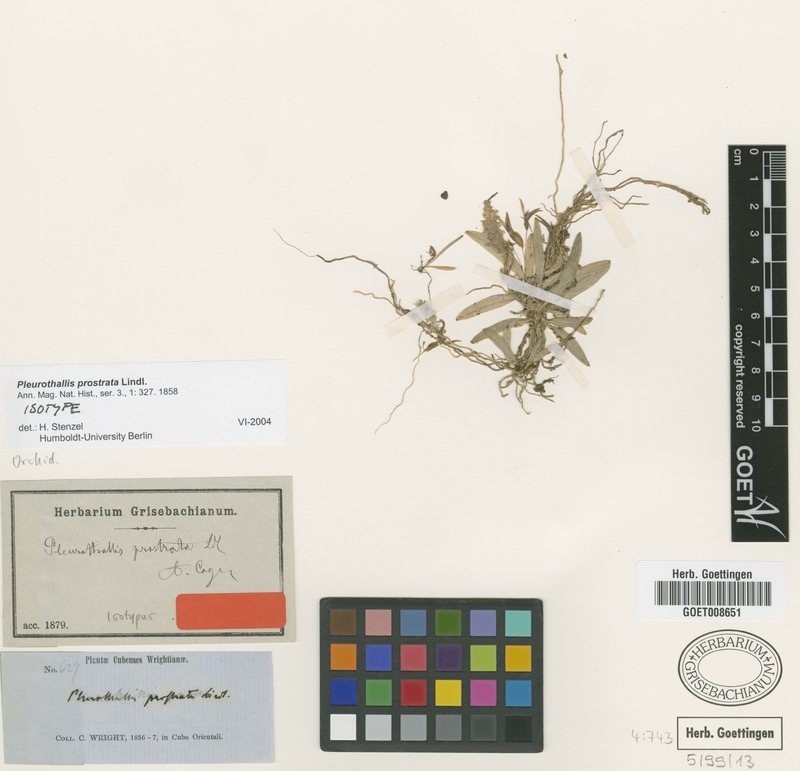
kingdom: Plantae
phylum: Tracheophyta
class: Liliopsida
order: Asparagales
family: Orchidaceae
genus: Acianthera
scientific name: Acianthera prostrata
